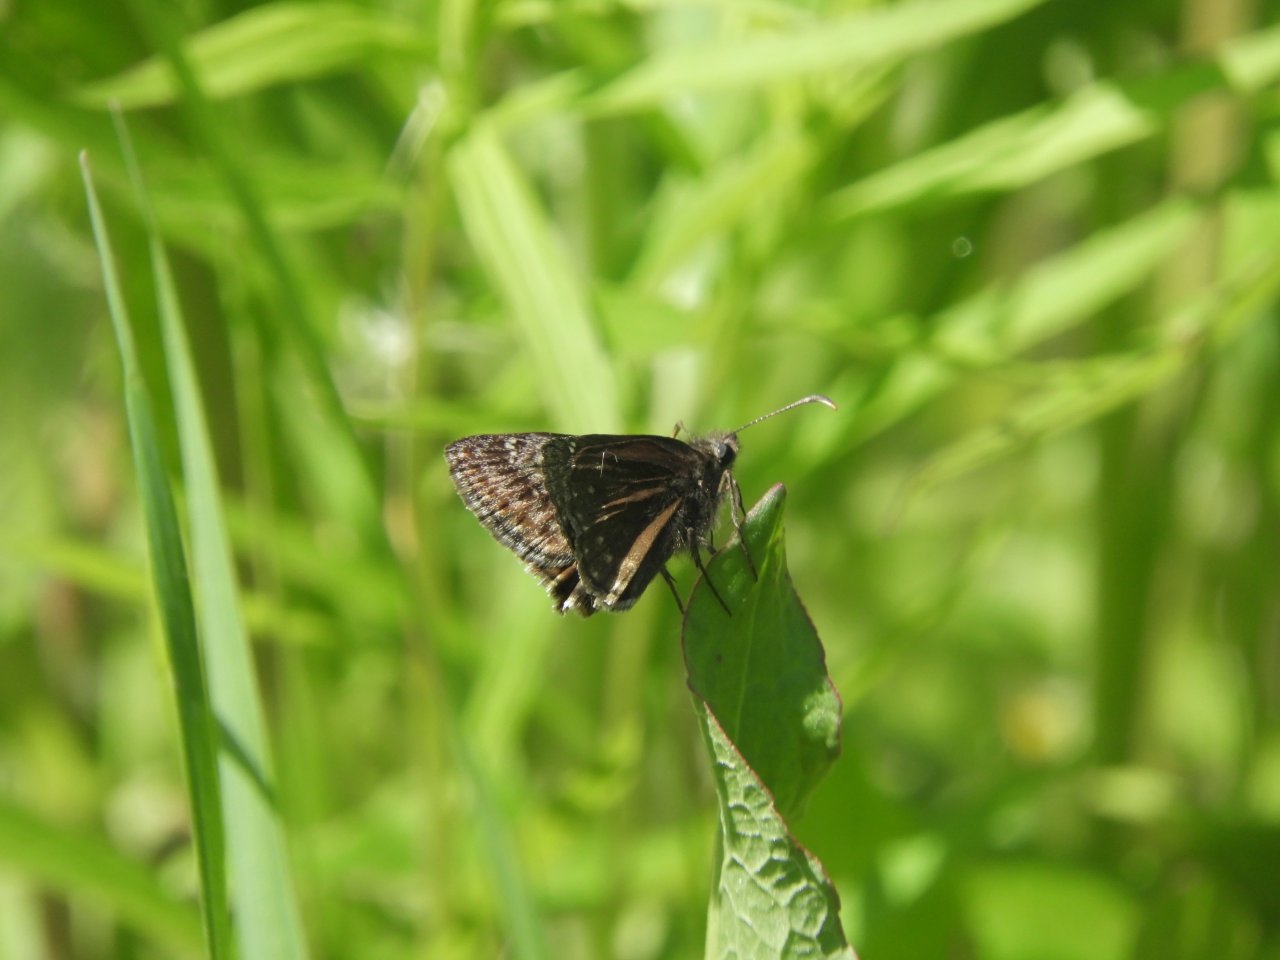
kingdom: Animalia
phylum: Arthropoda
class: Insecta
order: Lepidoptera
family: Hesperiidae
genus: Gesta
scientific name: Gesta
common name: Wild Indigo Duskywing
